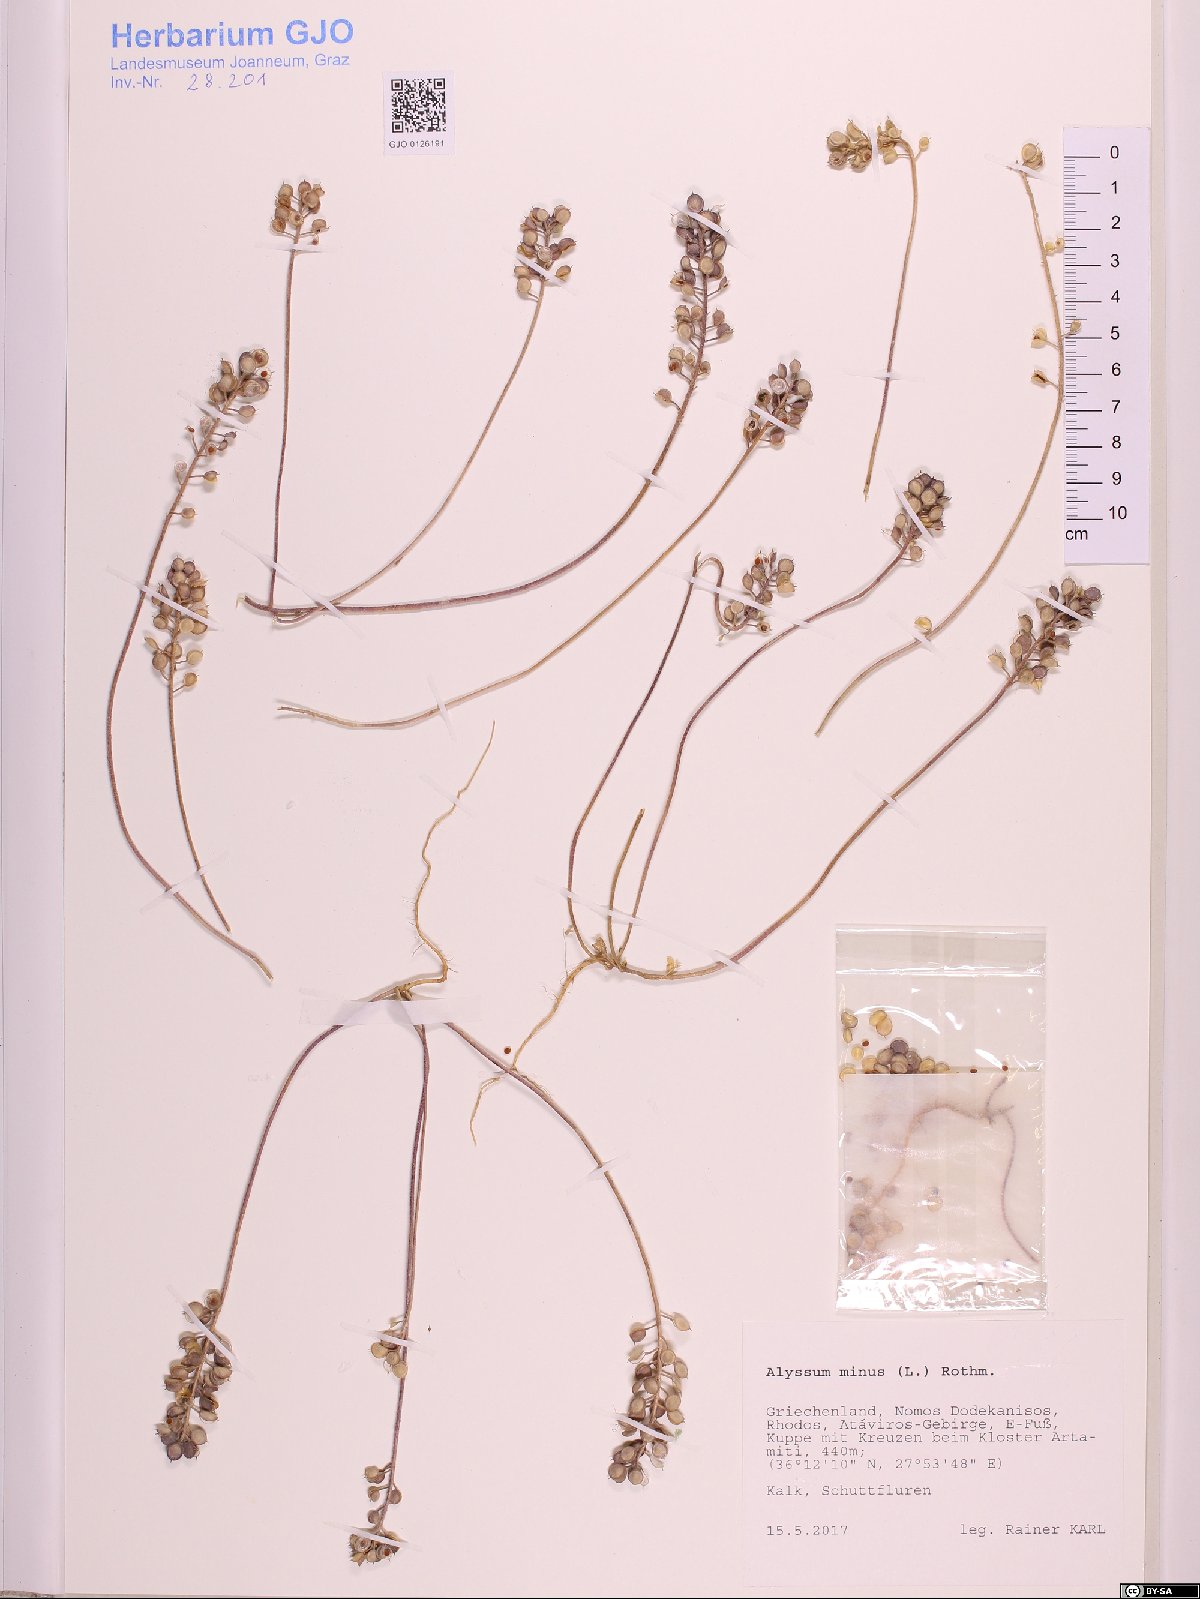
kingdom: Plantae
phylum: Tracheophyta
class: Magnoliopsida
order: Brassicales
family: Brassicaceae
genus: Alyssum
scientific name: Alyssum simplex
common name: Alyssum
